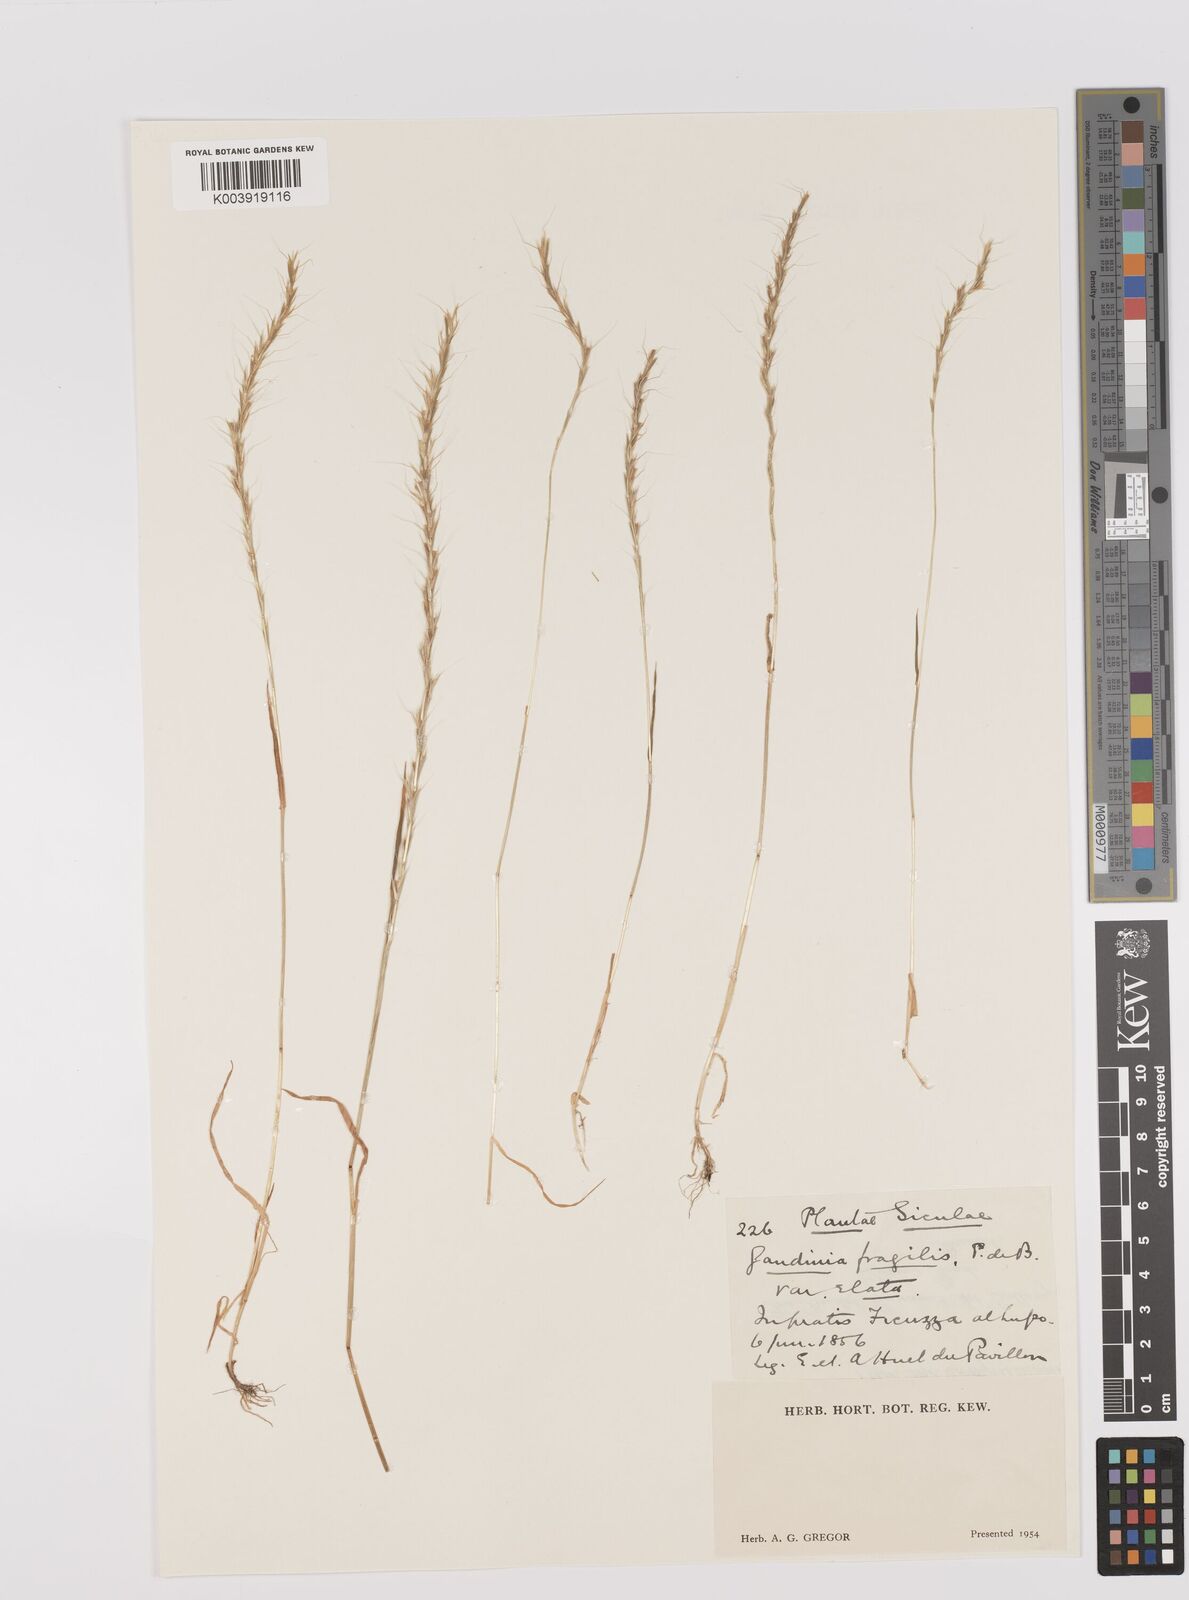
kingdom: Plantae
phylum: Tracheophyta
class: Liliopsida
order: Poales
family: Poaceae
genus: Gaudinia
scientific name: Gaudinia fragilis
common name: French oat-grass
